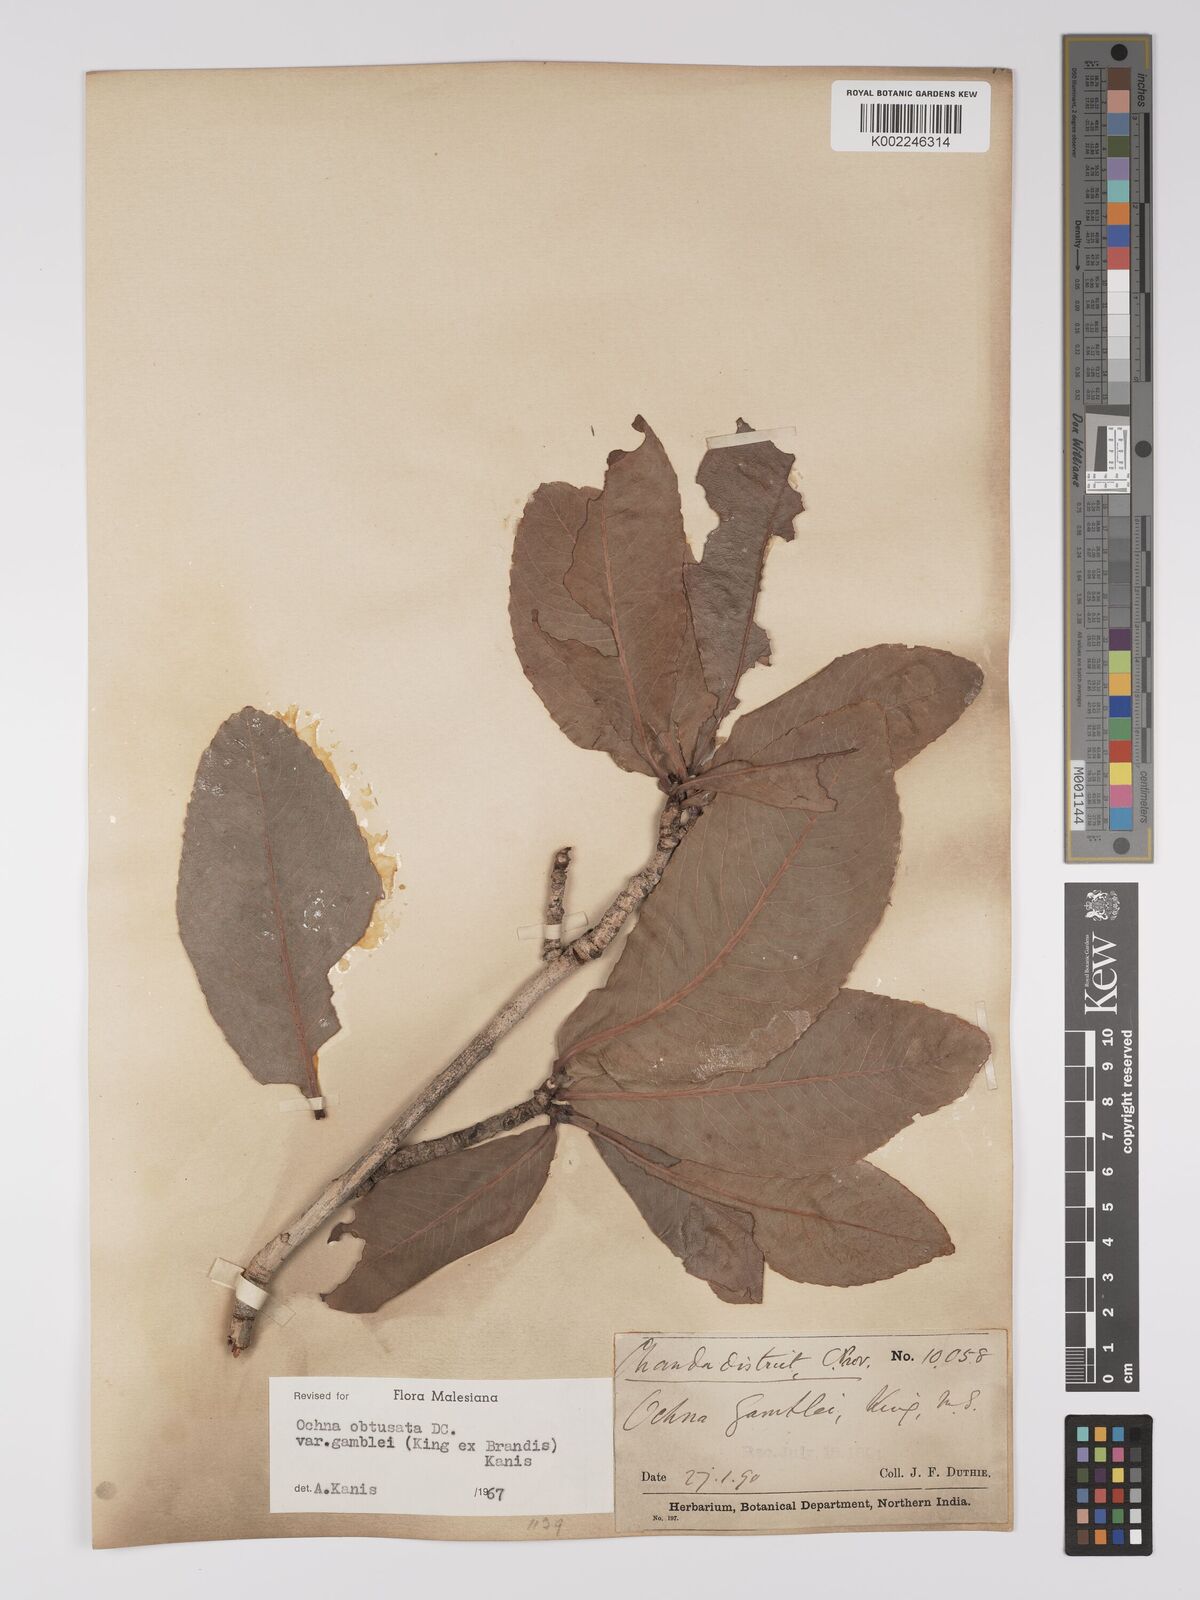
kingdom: Plantae
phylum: Tracheophyta
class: Magnoliopsida
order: Malpighiales
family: Ochnaceae
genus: Ochna
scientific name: Ochna gamblei
